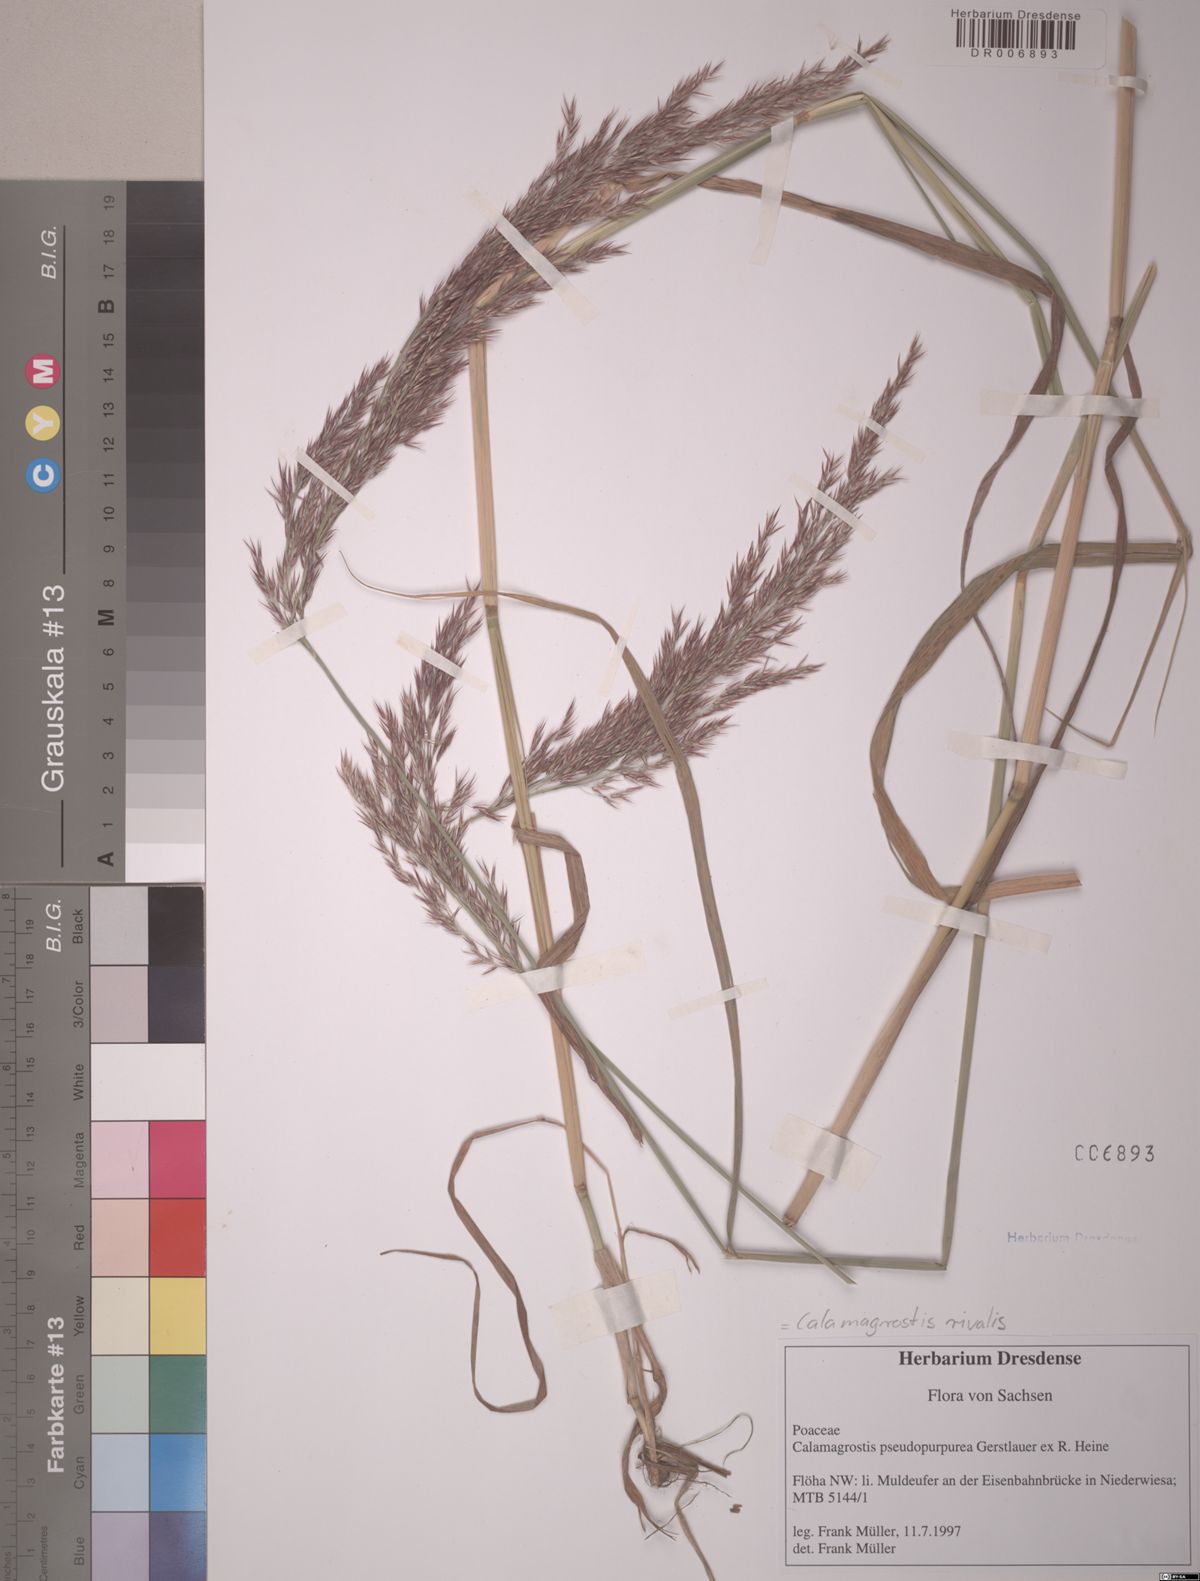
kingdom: Plantae
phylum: Tracheophyta
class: Liliopsida
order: Poales
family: Poaceae
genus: Calamagrostis
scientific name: Calamagrostis purpurea
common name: Scandinavian small-reed
